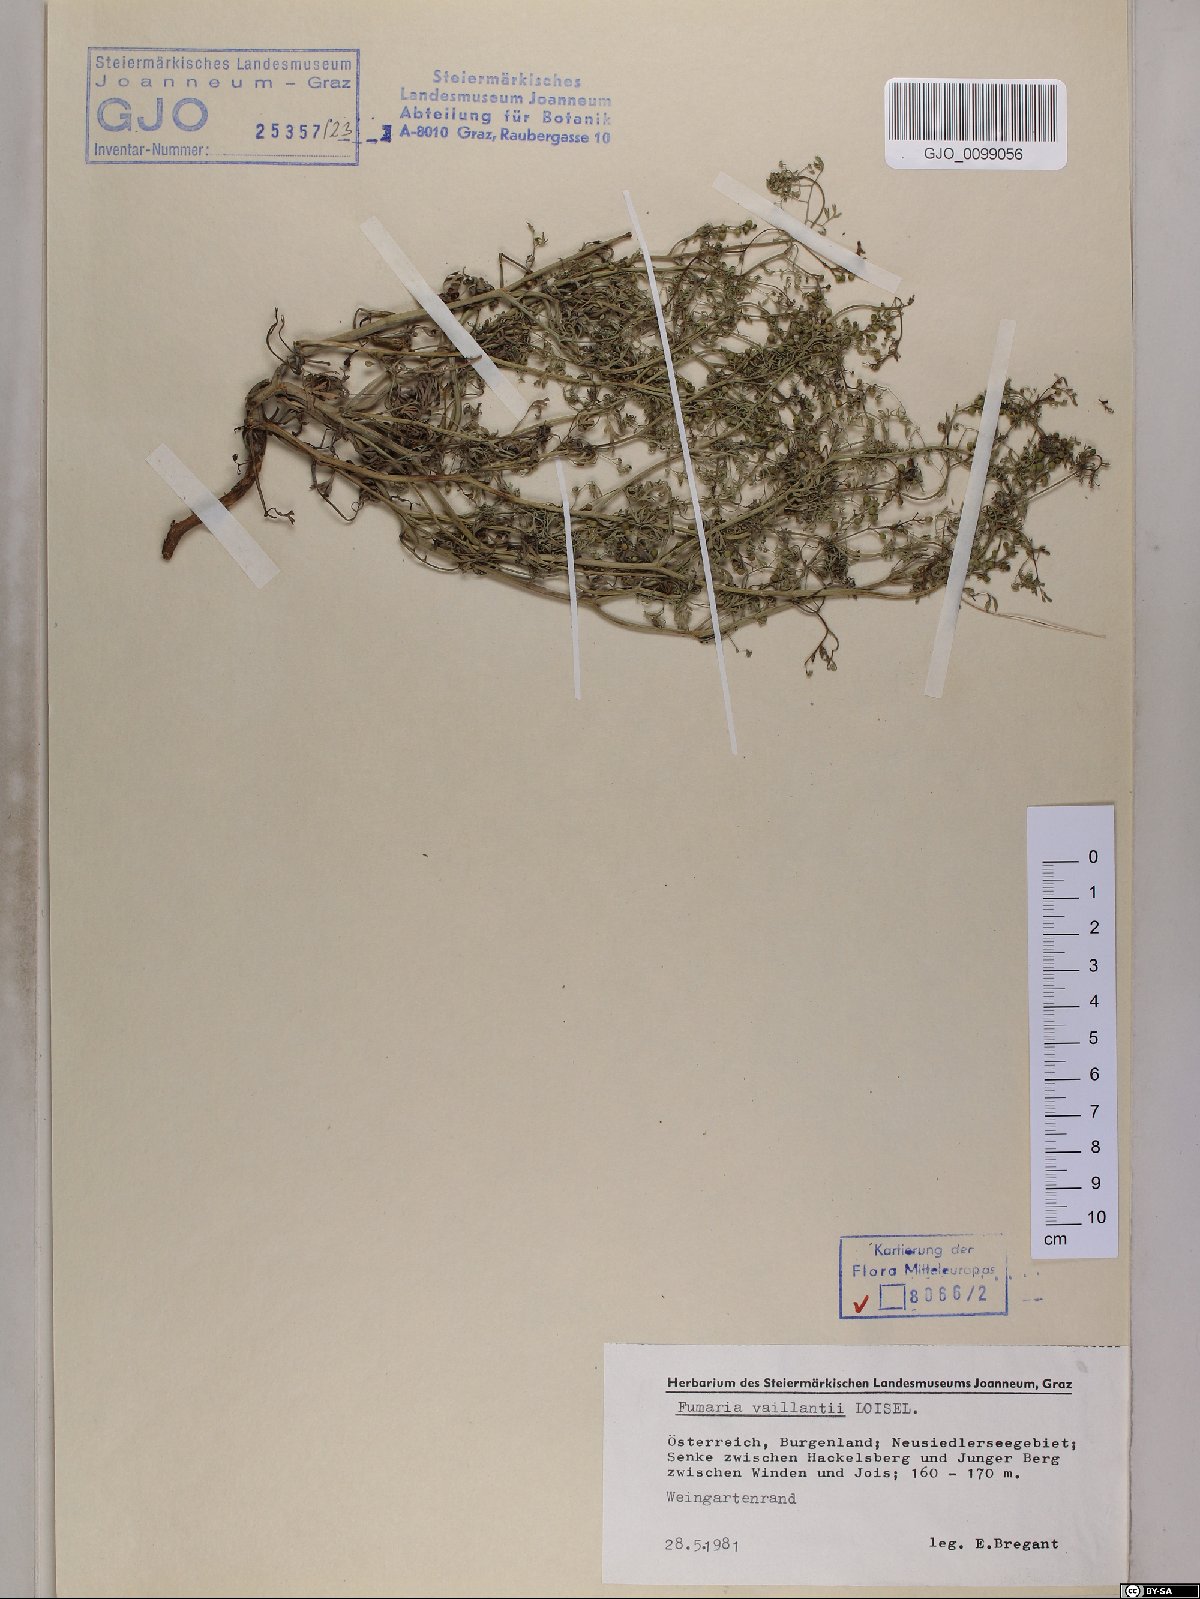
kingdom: Plantae
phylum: Tracheophyta
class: Magnoliopsida
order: Ranunculales
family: Papaveraceae
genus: Fumaria
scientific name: Fumaria vaillantii
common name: Few-flowered fumitory
